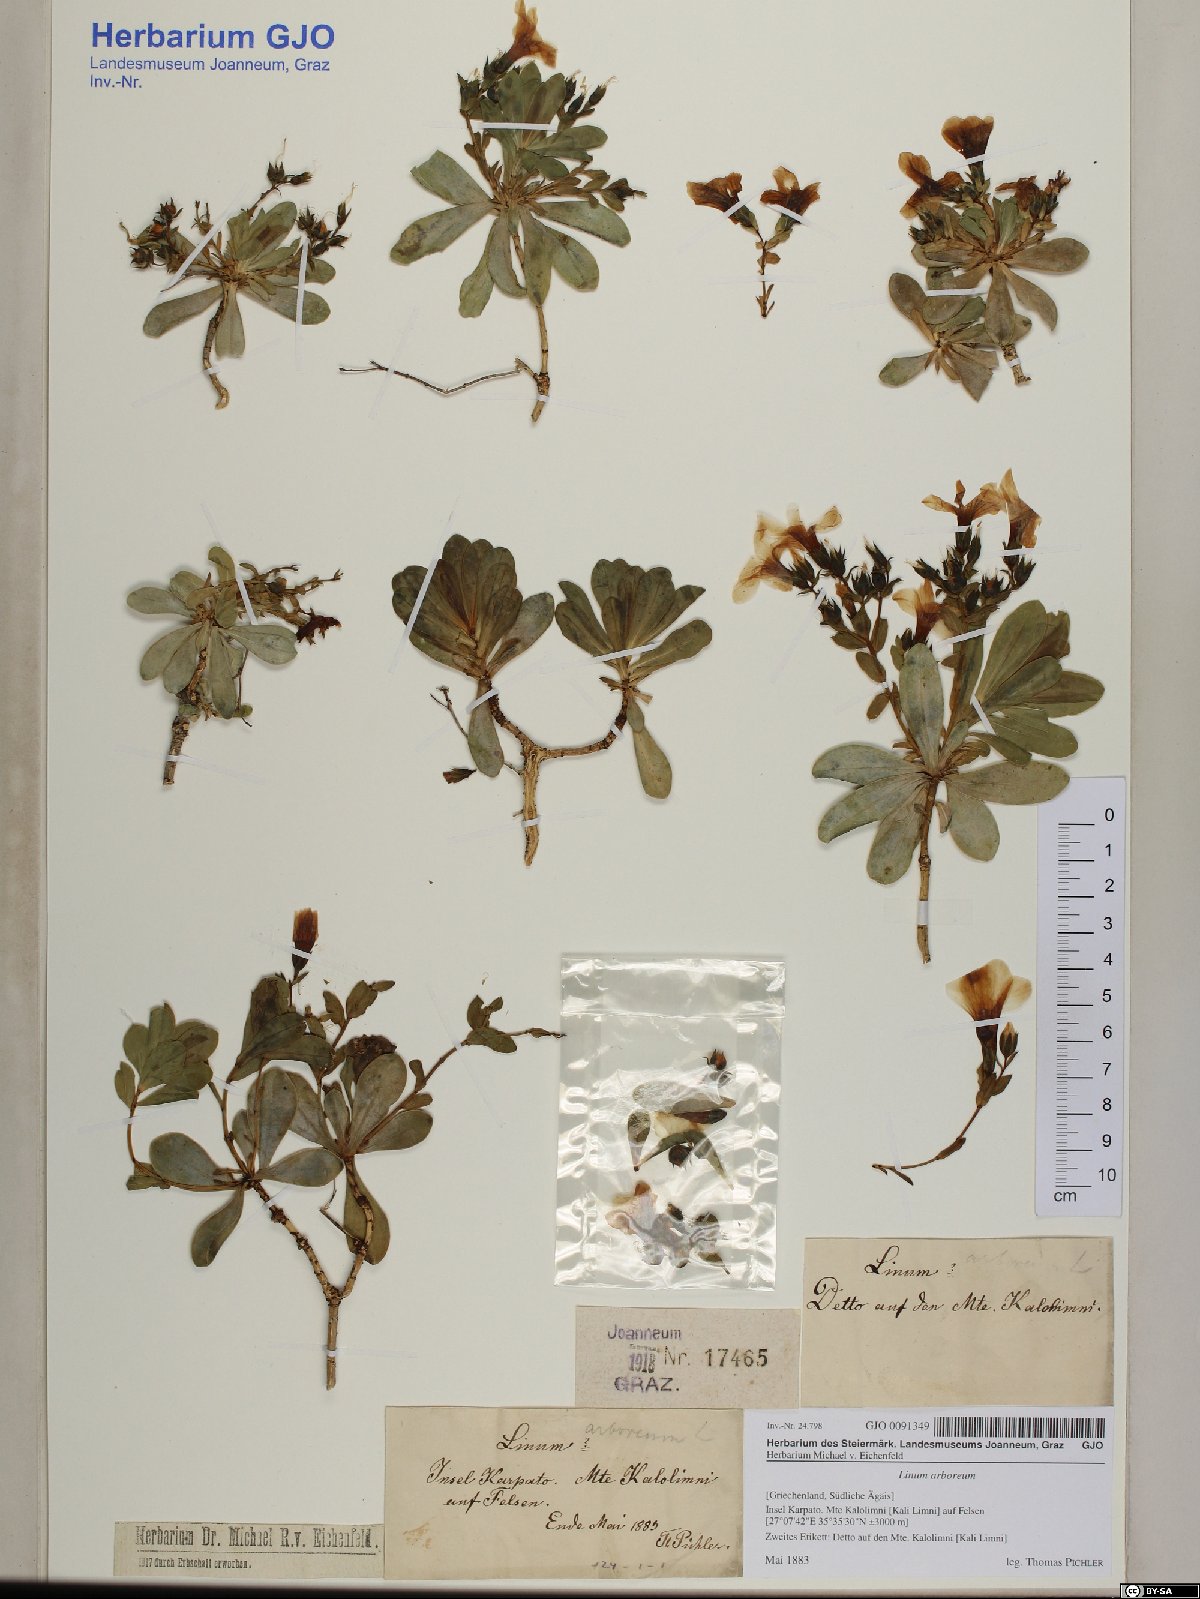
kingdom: Plantae
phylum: Tracheophyta
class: Magnoliopsida
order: Malpighiales
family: Linaceae
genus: Linum
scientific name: Linum arboreum
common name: Tree flax
